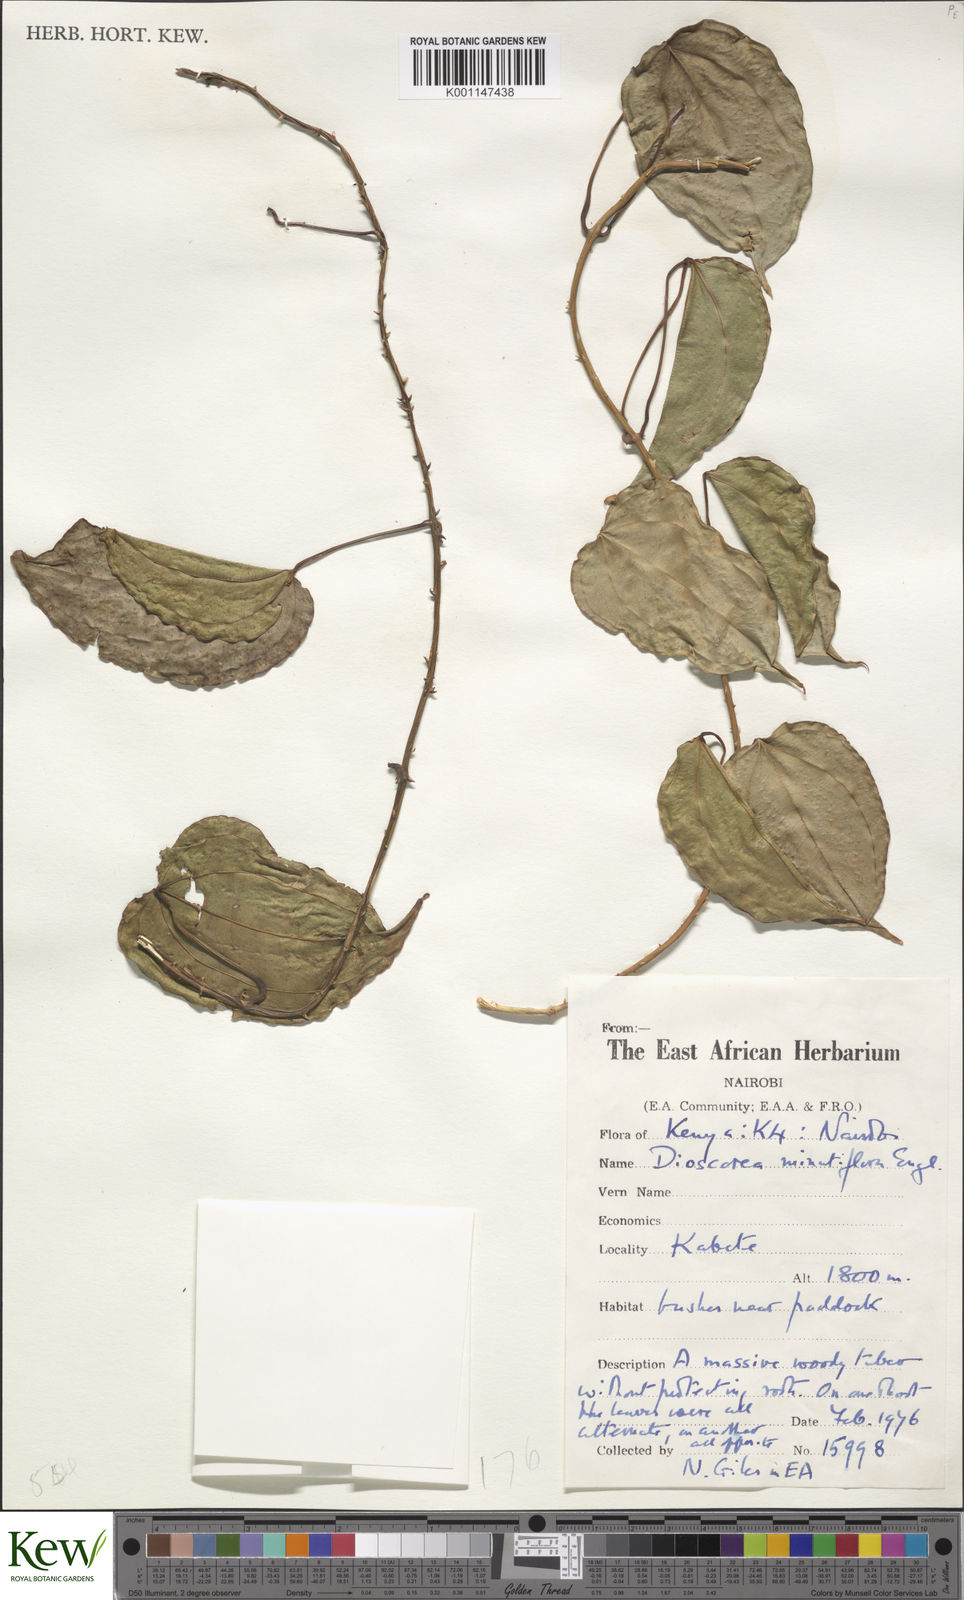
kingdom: Plantae
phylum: Tracheophyta
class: Liliopsida
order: Dioscoreales
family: Dioscoreaceae
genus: Dioscorea
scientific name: Dioscorea minutiflora
